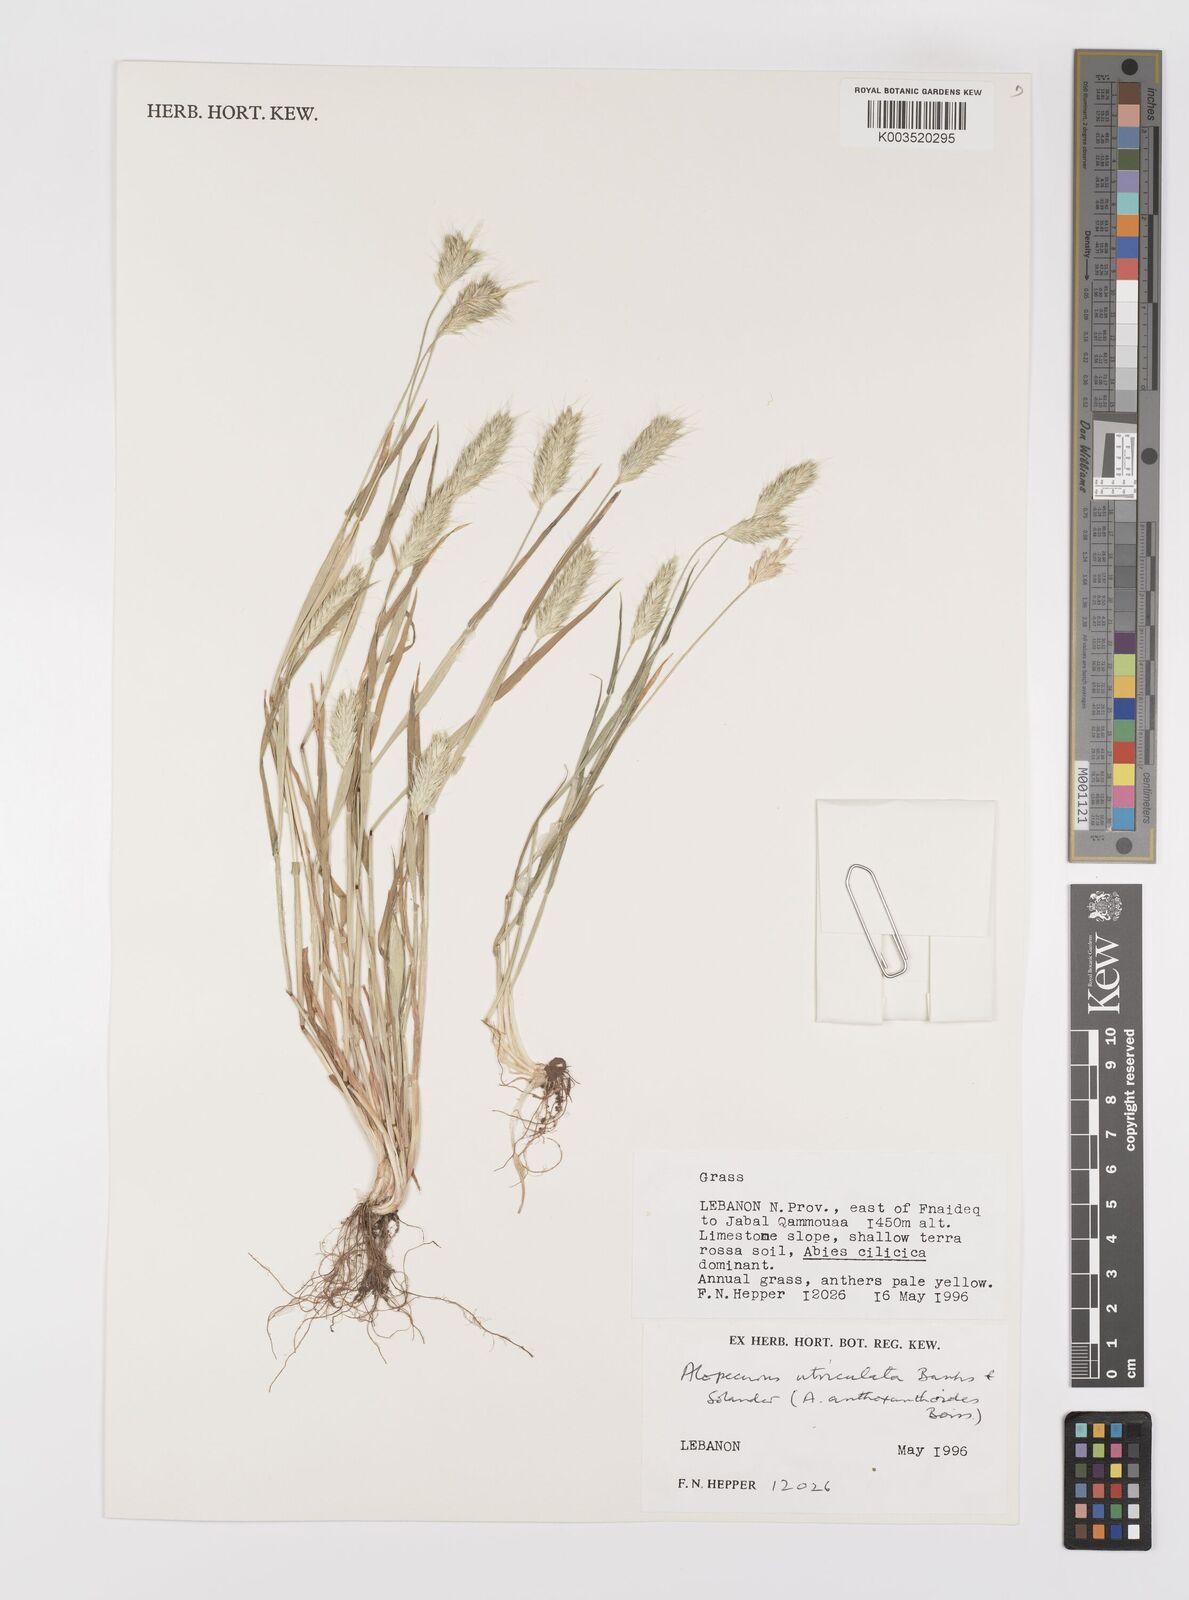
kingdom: Plantae
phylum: Tracheophyta
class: Liliopsida
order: Poales
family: Poaceae
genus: Alopecurus
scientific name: Alopecurus utriculatus
